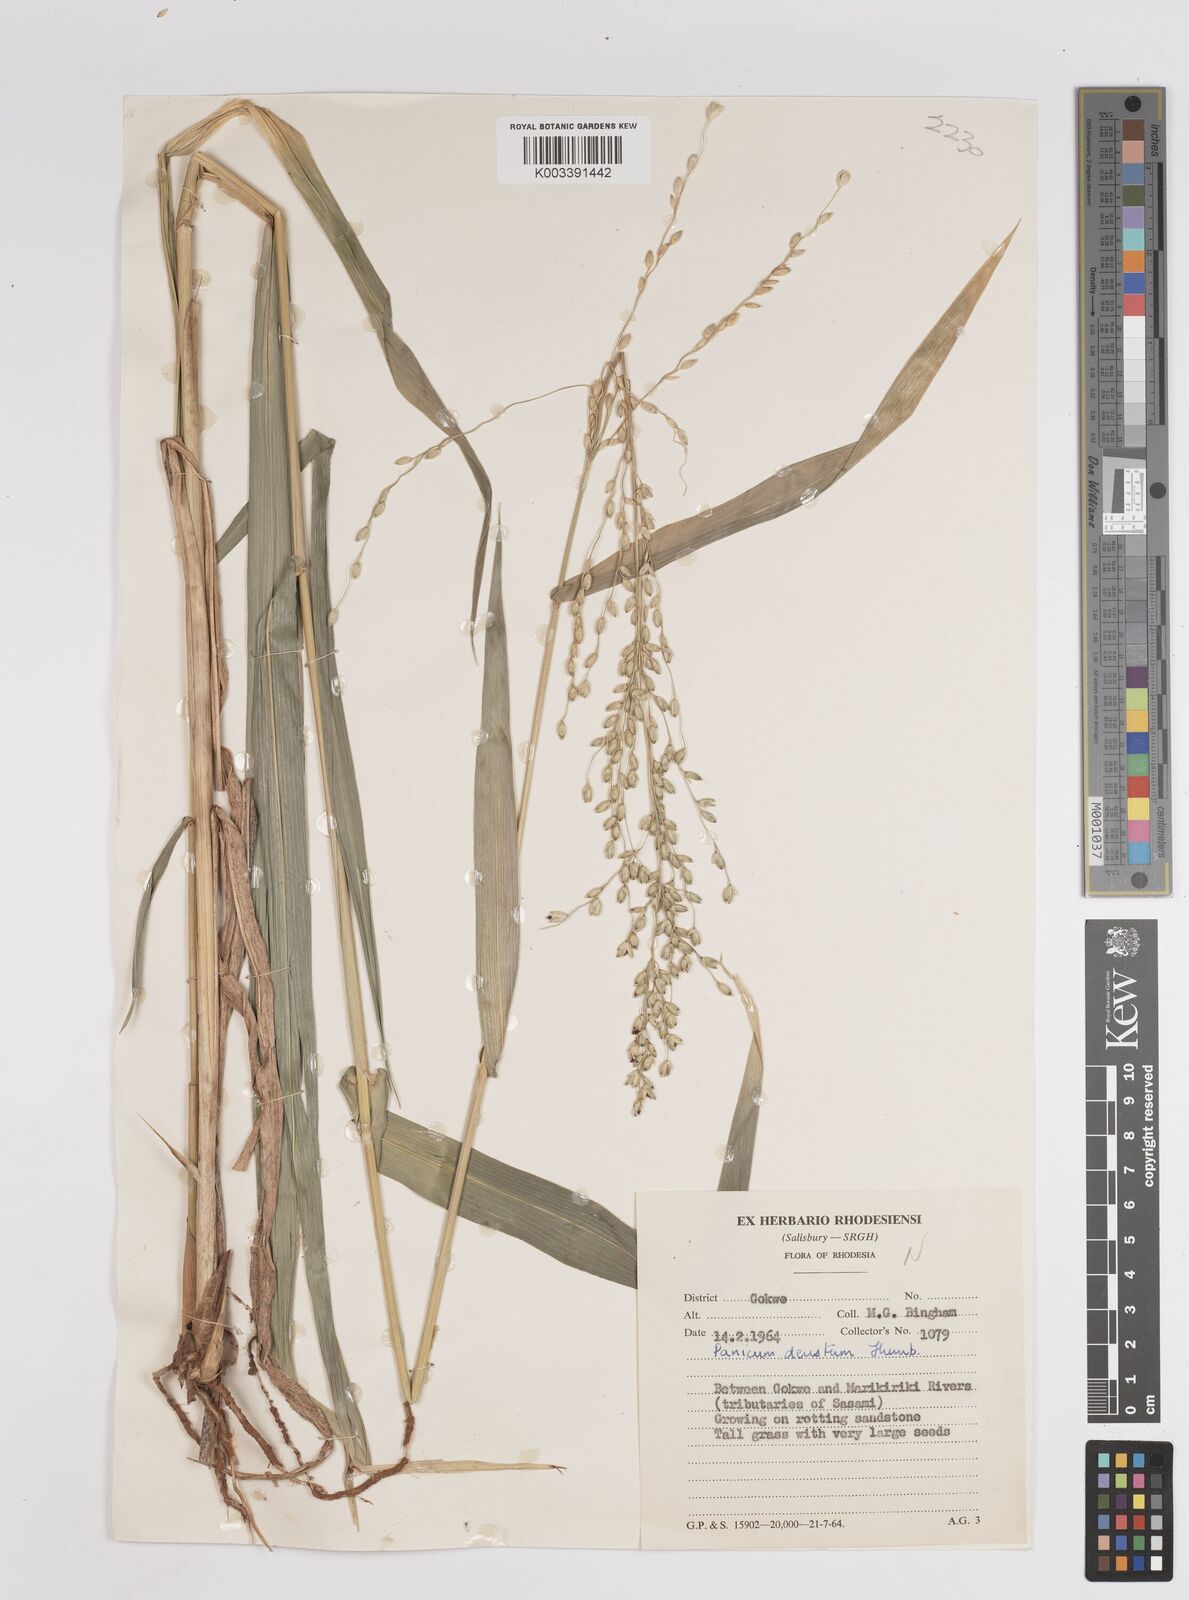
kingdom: Plantae
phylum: Tracheophyta
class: Liliopsida
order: Poales
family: Poaceae
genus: Panicum
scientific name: Panicum deustum
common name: Reed panicum
